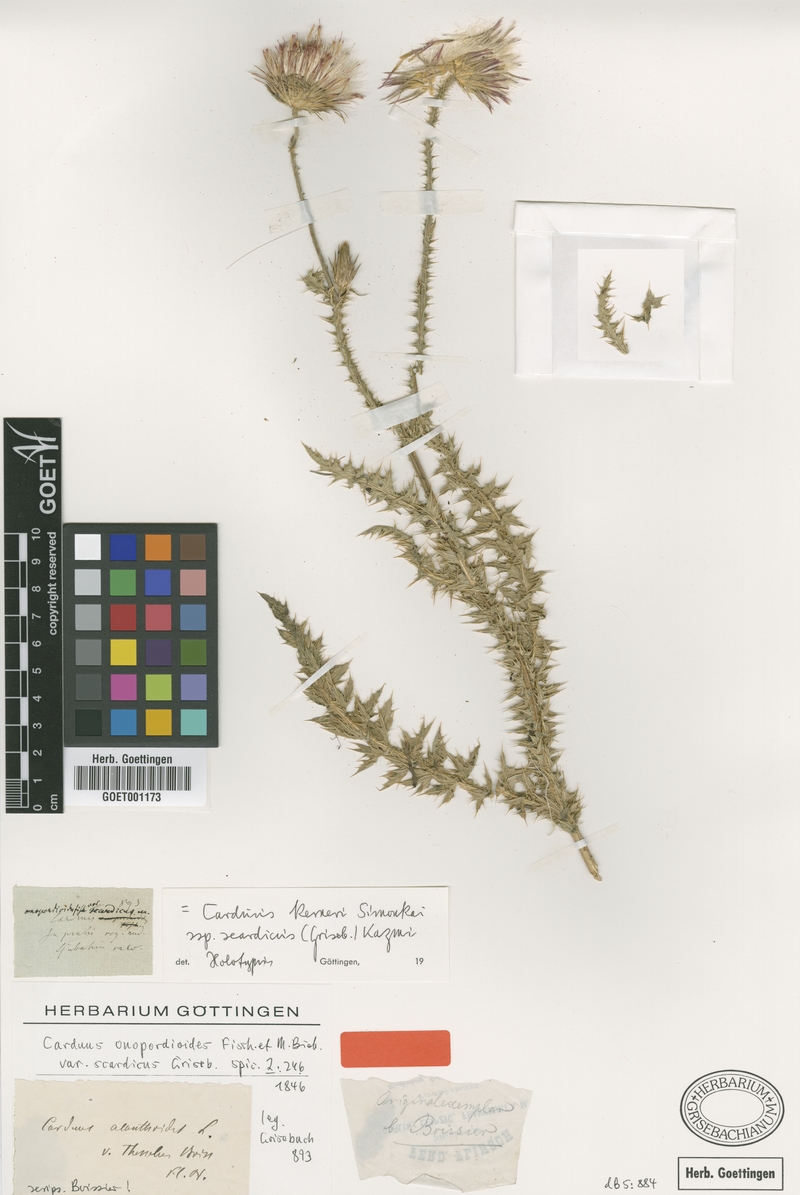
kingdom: Plantae
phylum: Tracheophyta
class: Magnoliopsida
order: Asterales
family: Asteraceae
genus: Carduus
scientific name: Carduus kerneri
